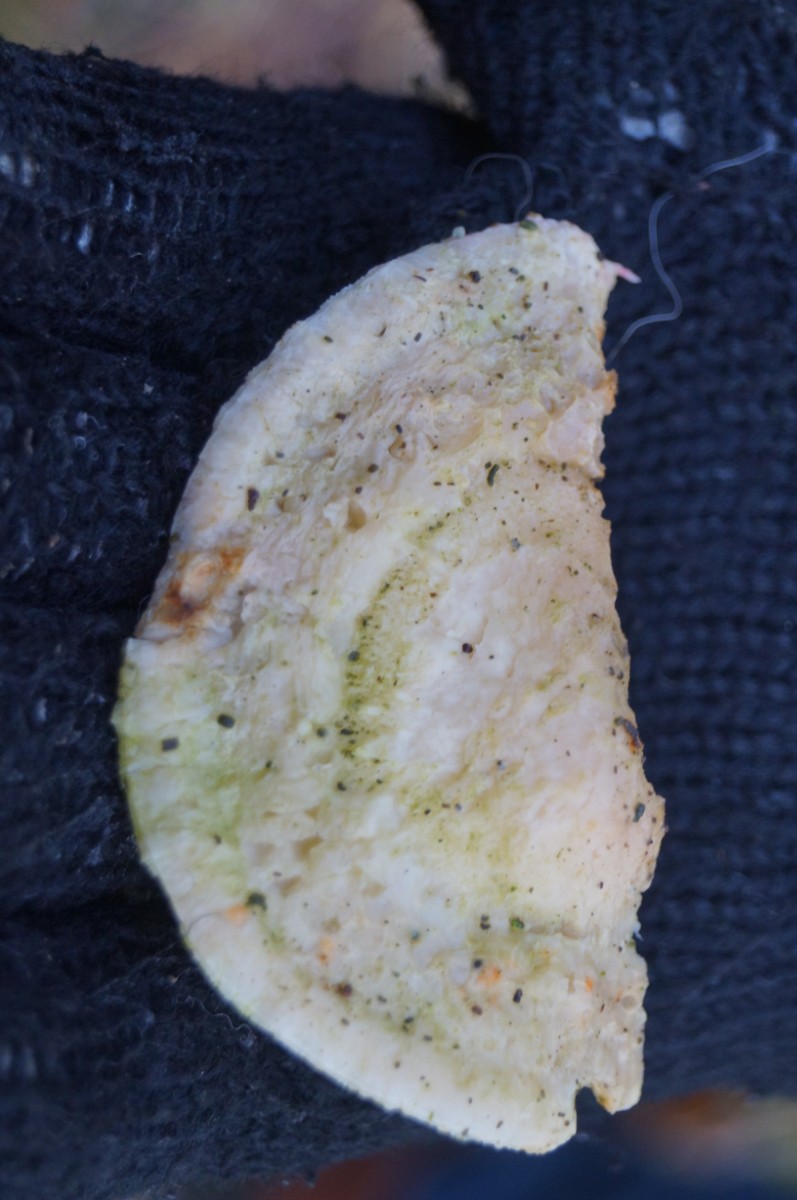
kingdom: Fungi
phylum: Basidiomycota
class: Agaricomycetes
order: Polyporales
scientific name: Polyporales
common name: poresvampordenen
